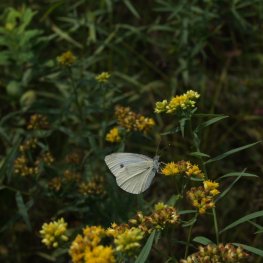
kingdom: Animalia
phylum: Arthropoda
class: Insecta
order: Lepidoptera
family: Pieridae
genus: Pieris
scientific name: Pieris rapae
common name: Cabbage White
